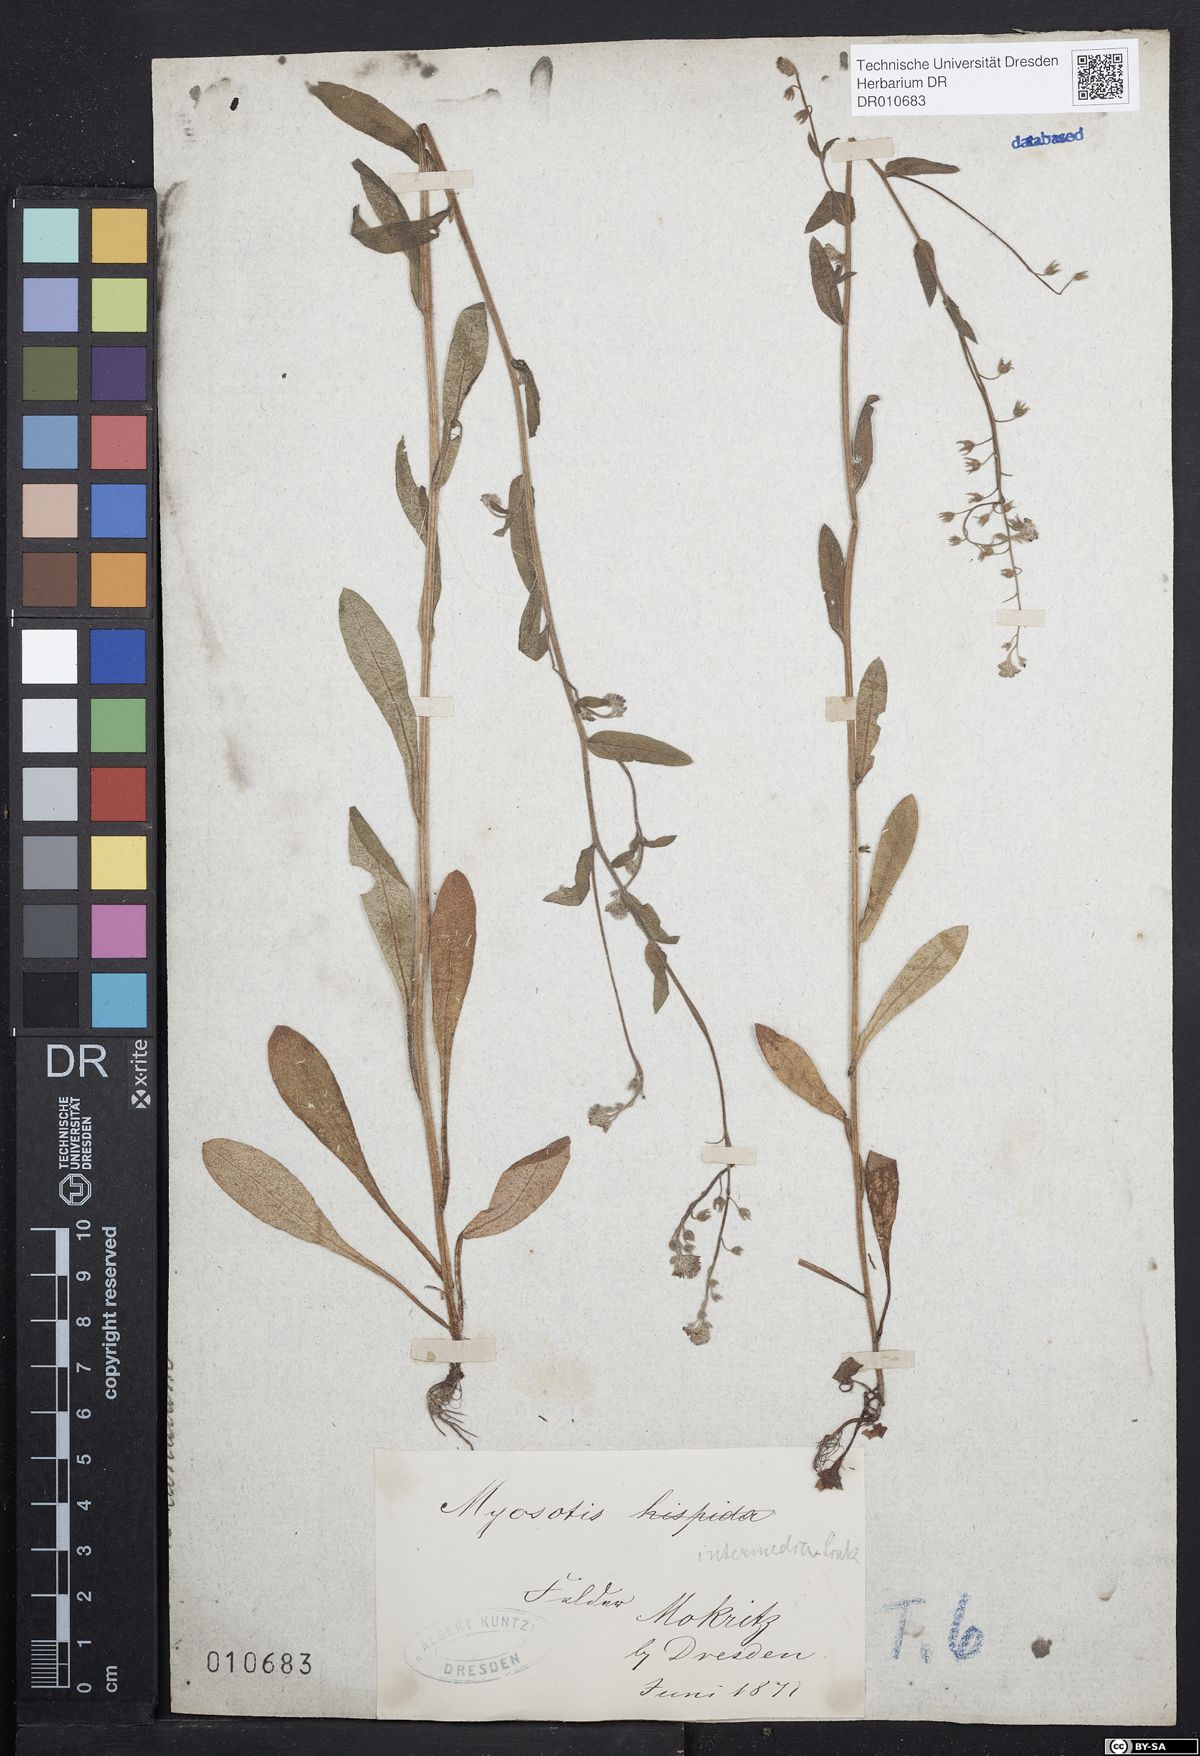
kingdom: Plantae
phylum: Tracheophyta
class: Magnoliopsida
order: Boraginales
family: Boraginaceae
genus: Myosotis
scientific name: Myosotis arvensis
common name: Field forget-me-not
